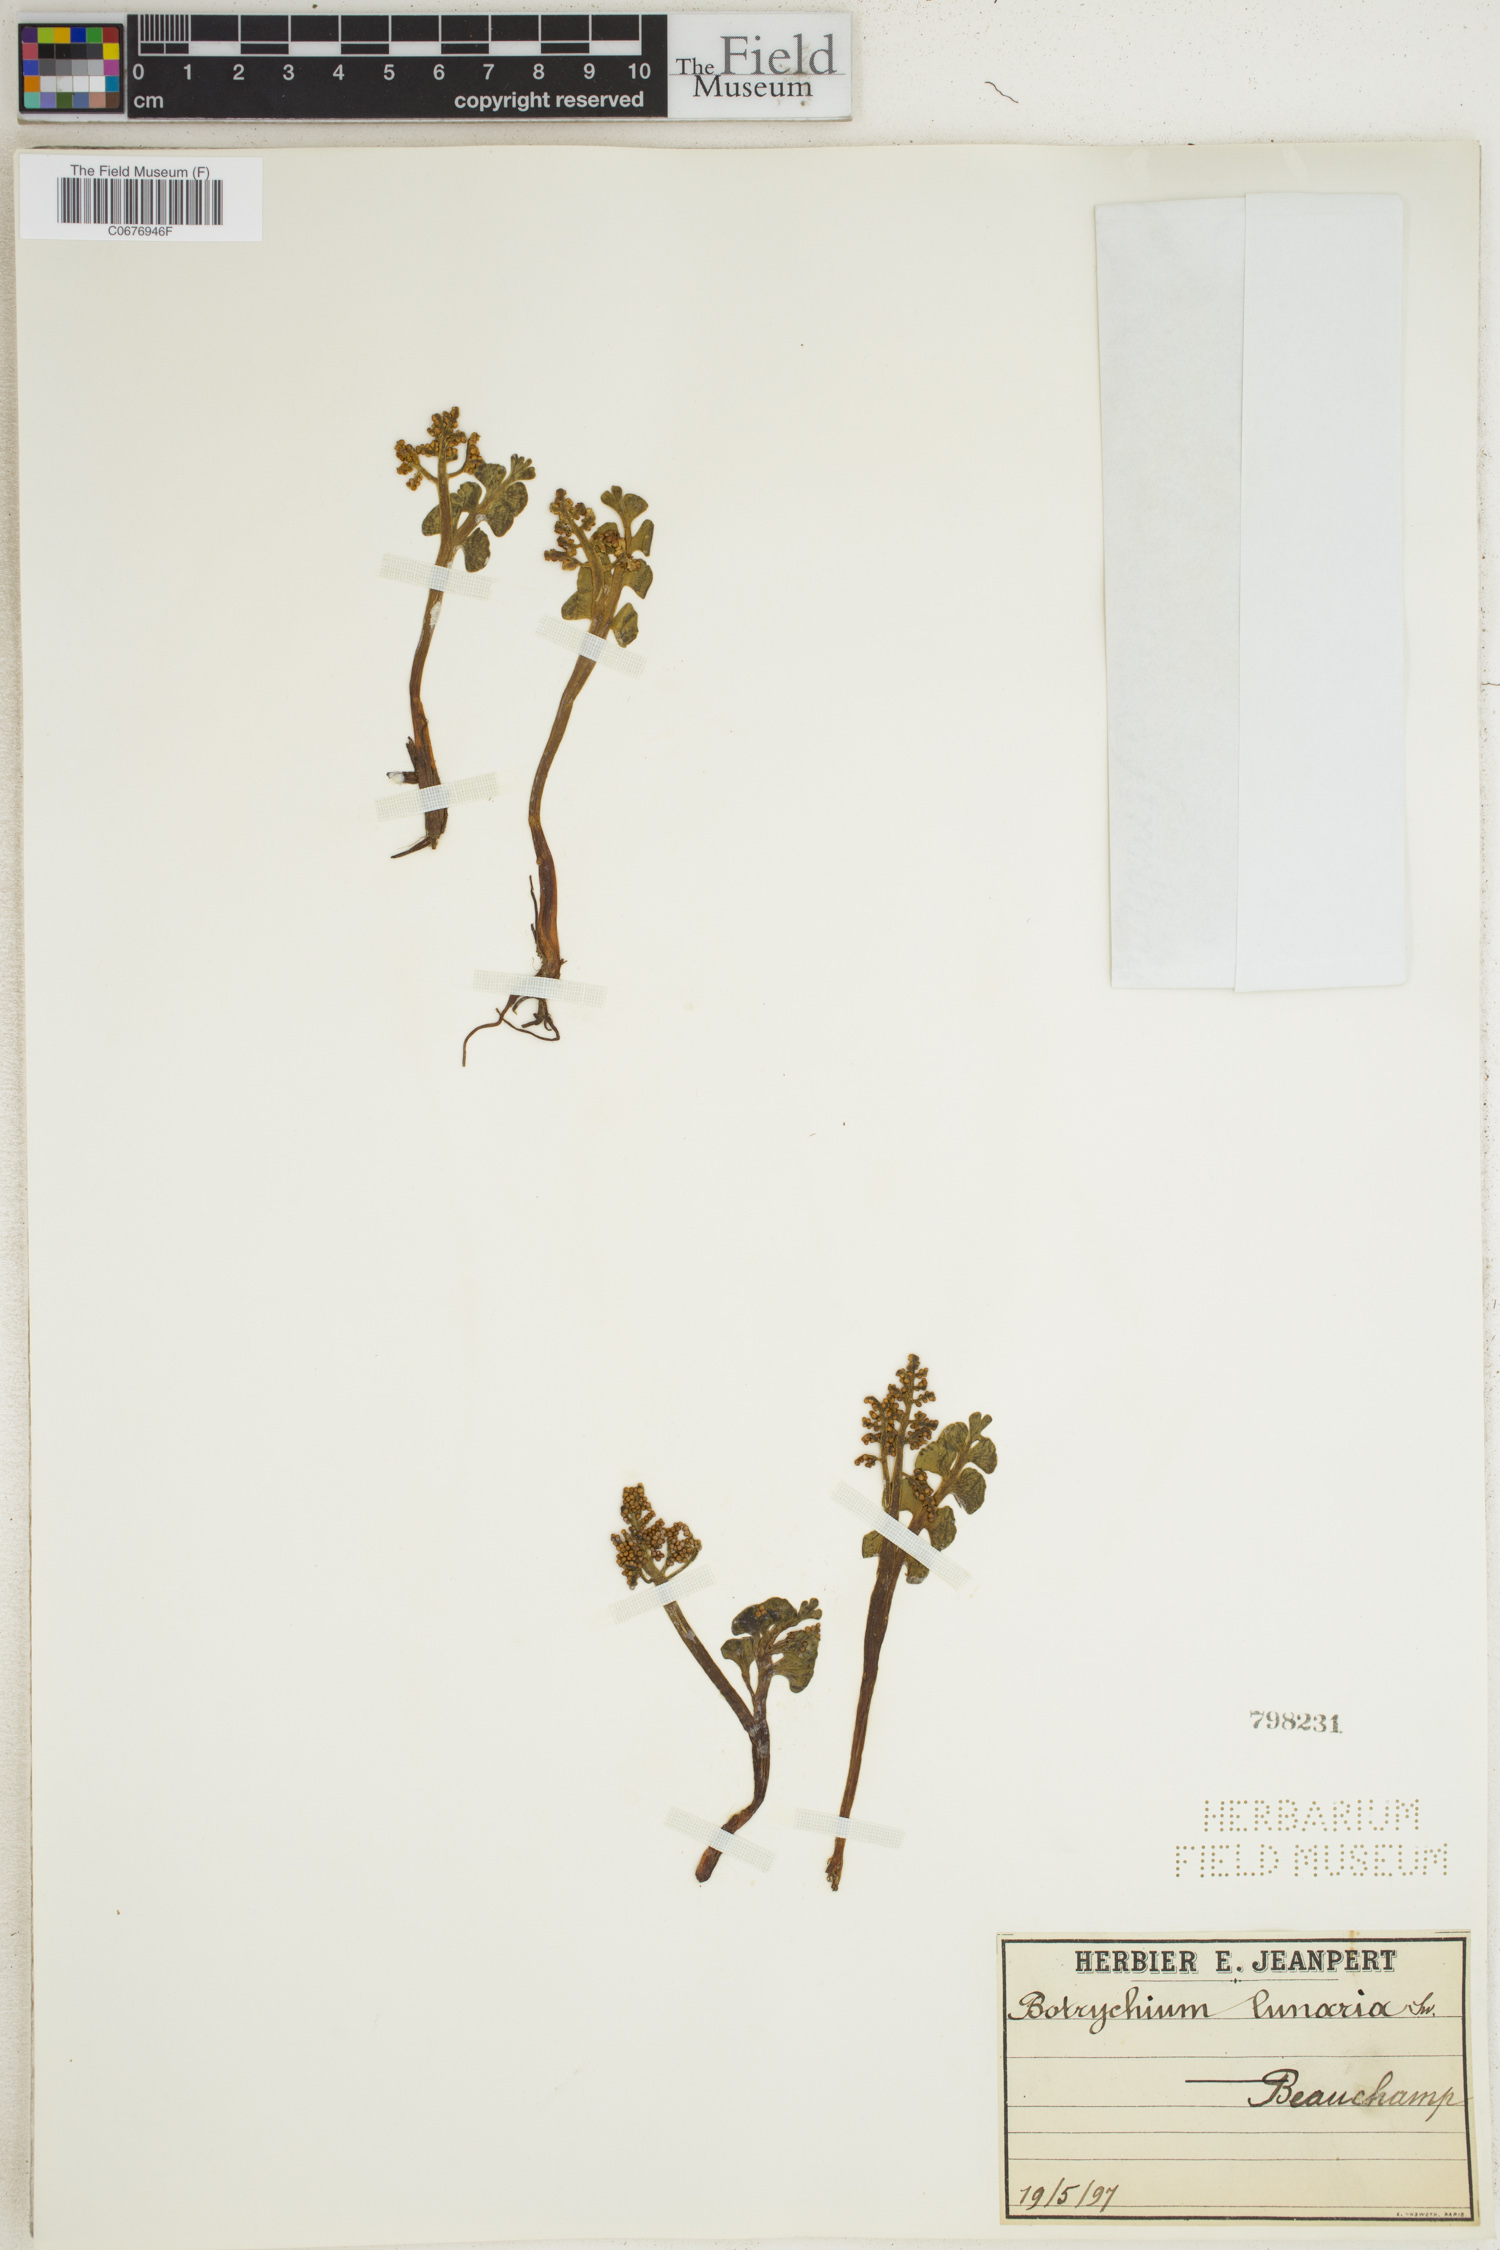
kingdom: Plantae
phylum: Tracheophyta
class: Polypodiopsida
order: Ophioglossales
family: Ophioglossaceae
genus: Botrychium
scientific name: Botrychium lunaria
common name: Moonwort
